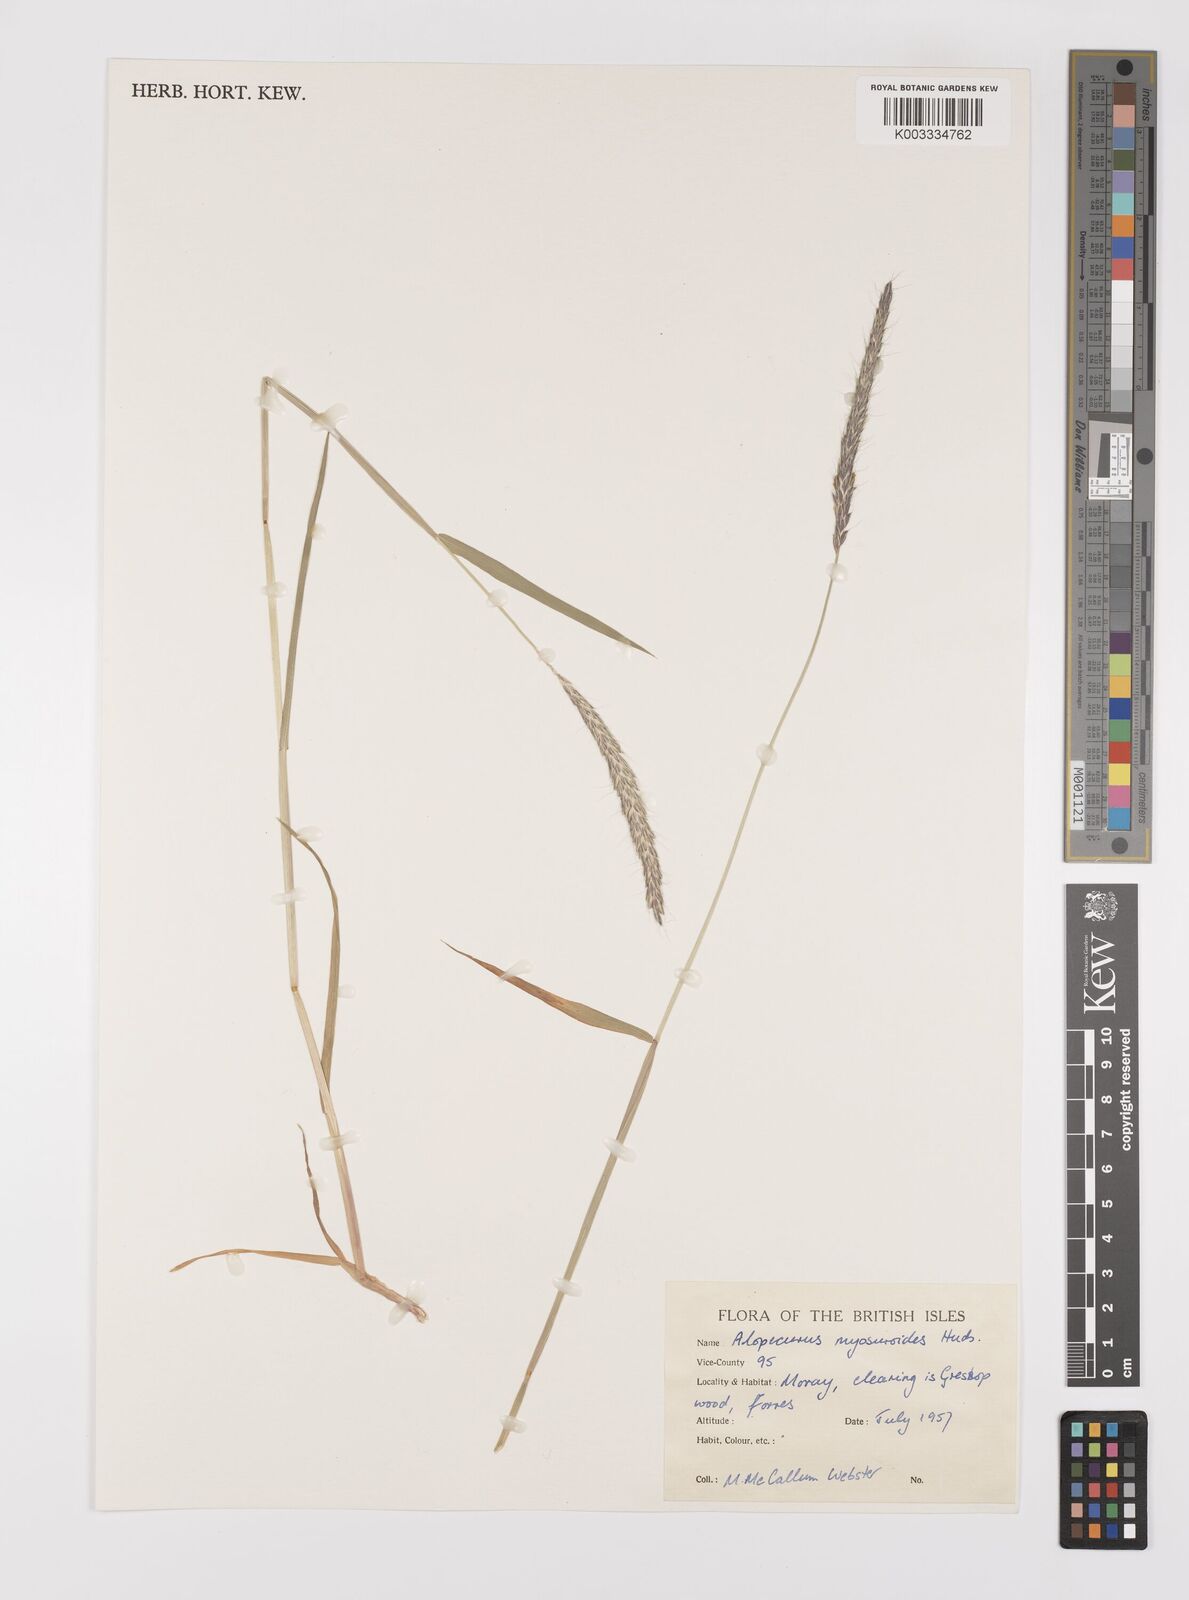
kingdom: Plantae
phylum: Tracheophyta
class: Liliopsida
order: Poales
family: Poaceae
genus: Alopecurus
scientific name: Alopecurus myosuroides
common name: Black-grass
